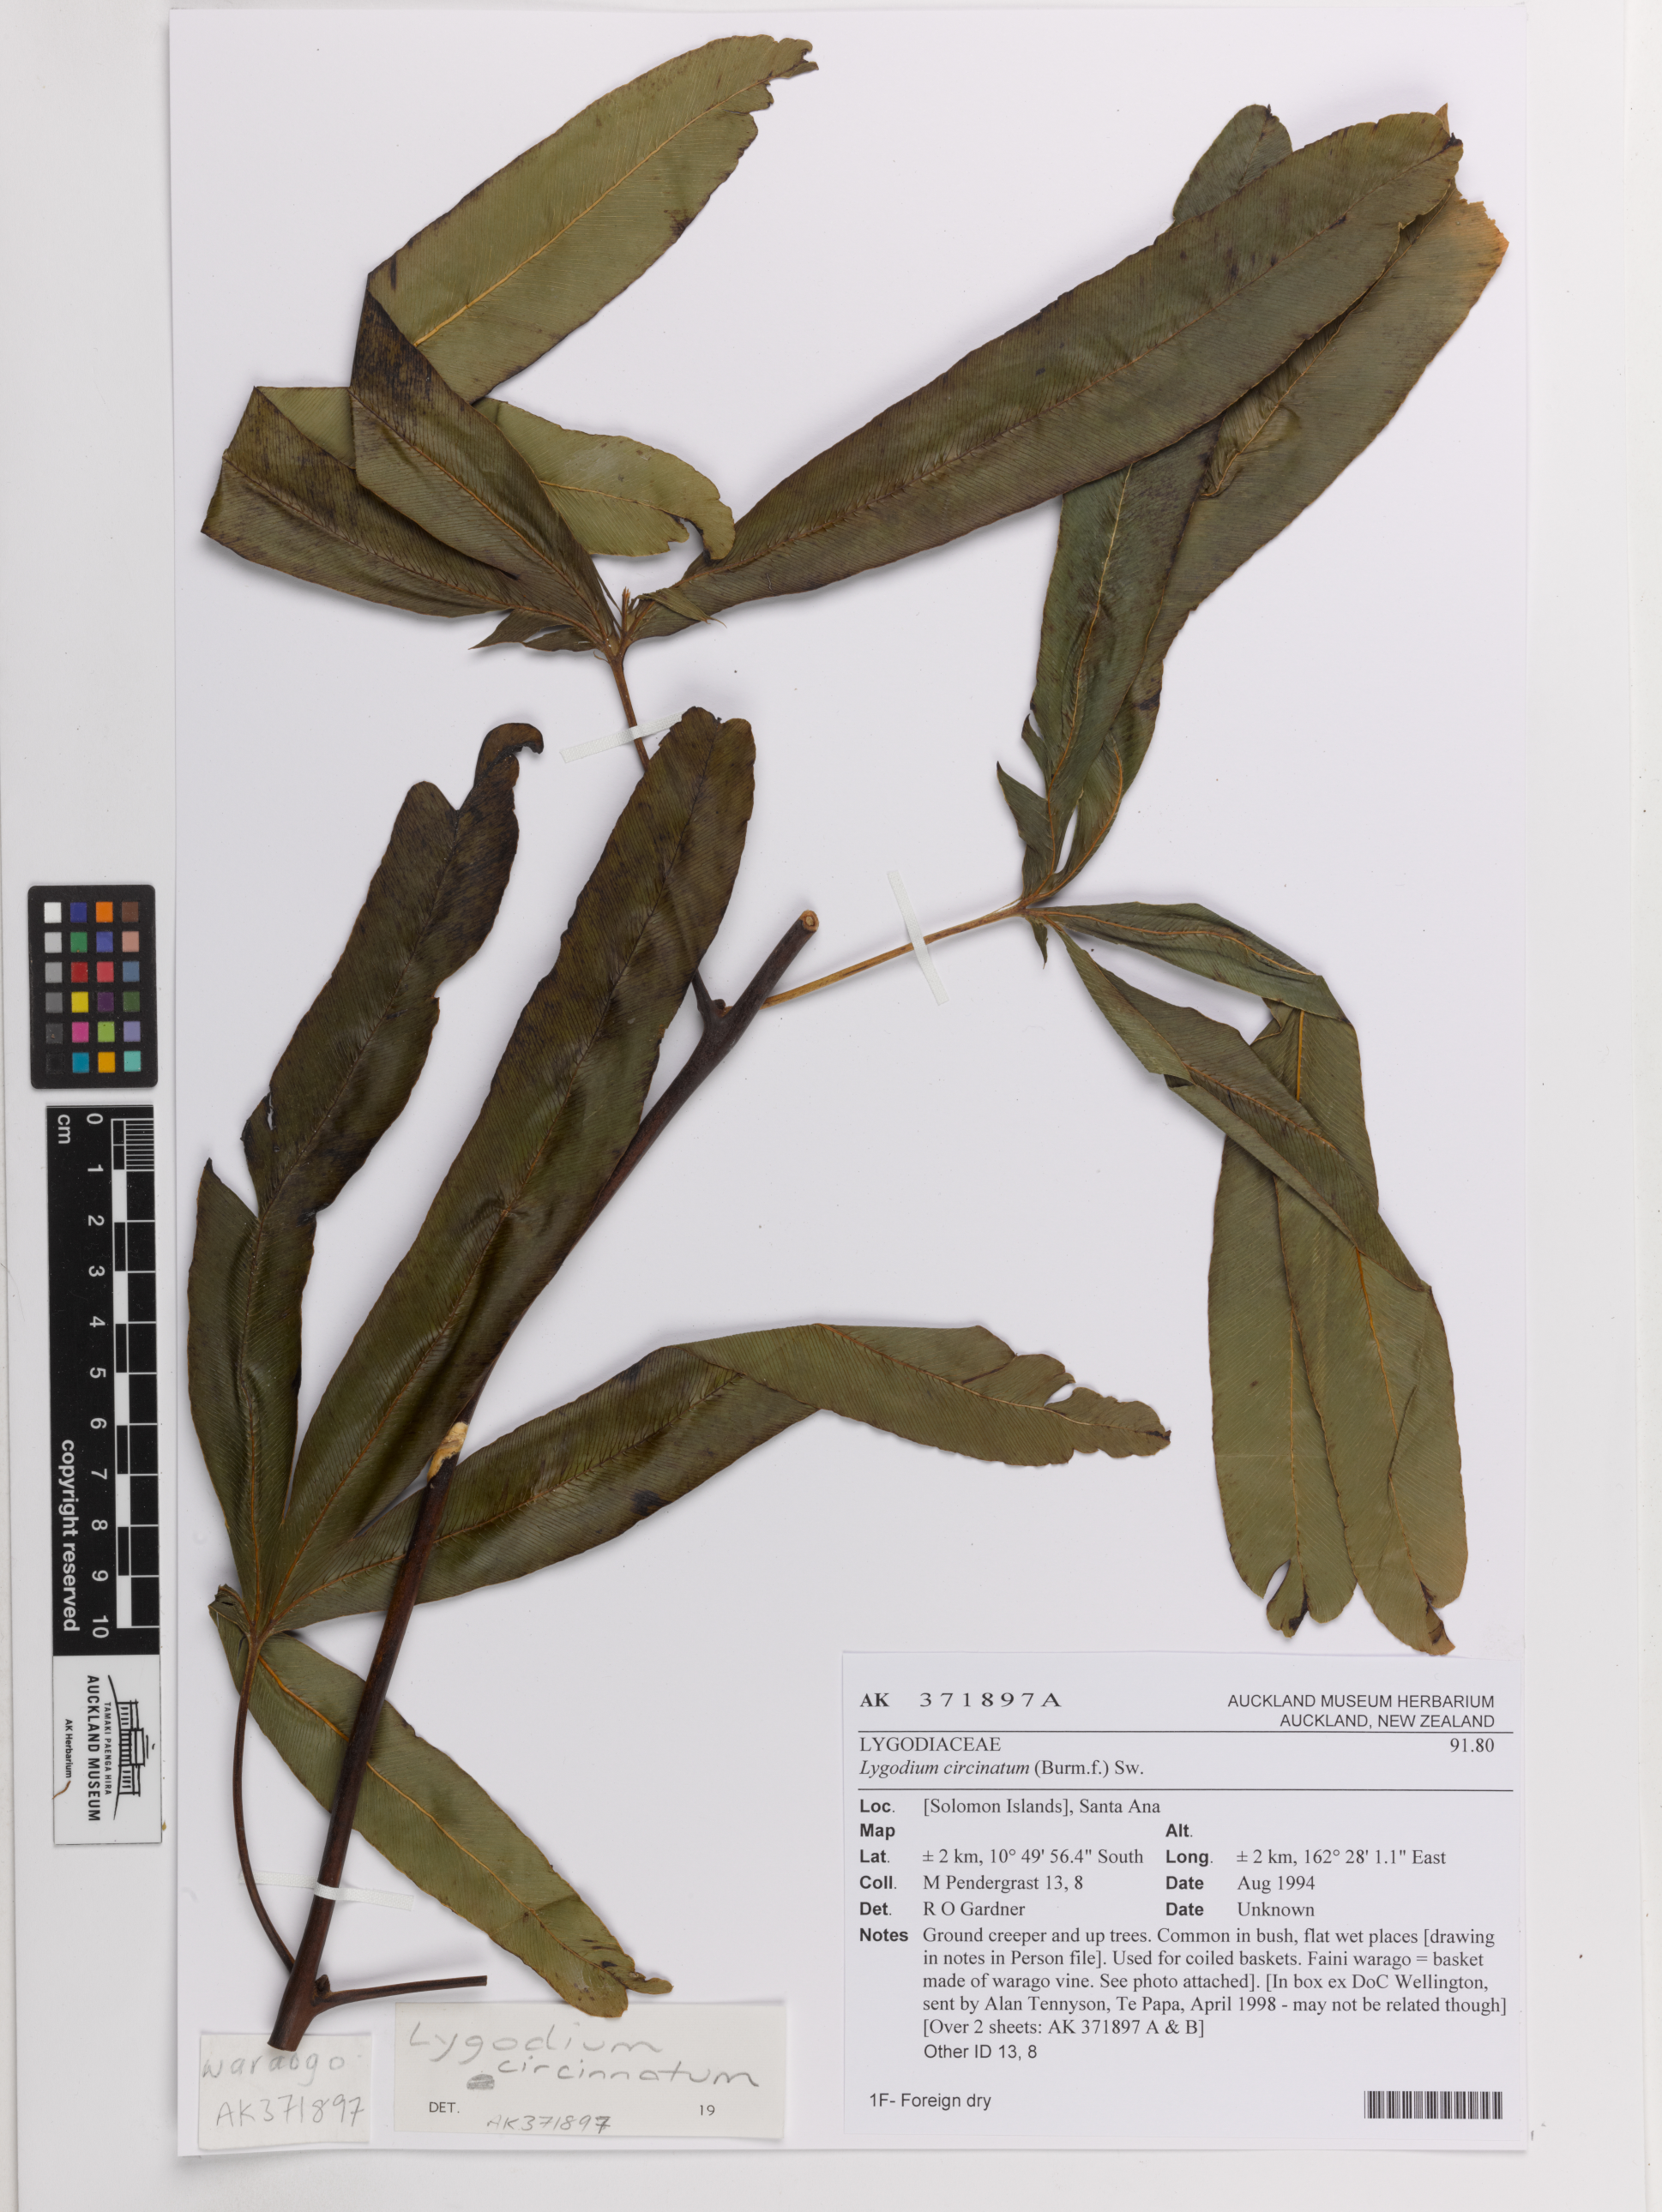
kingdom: Plantae
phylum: Tracheophyta
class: Polypodiopsida
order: Schizaeales
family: Lygodiaceae
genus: Lygodium
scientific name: Lygodium circinnatum
